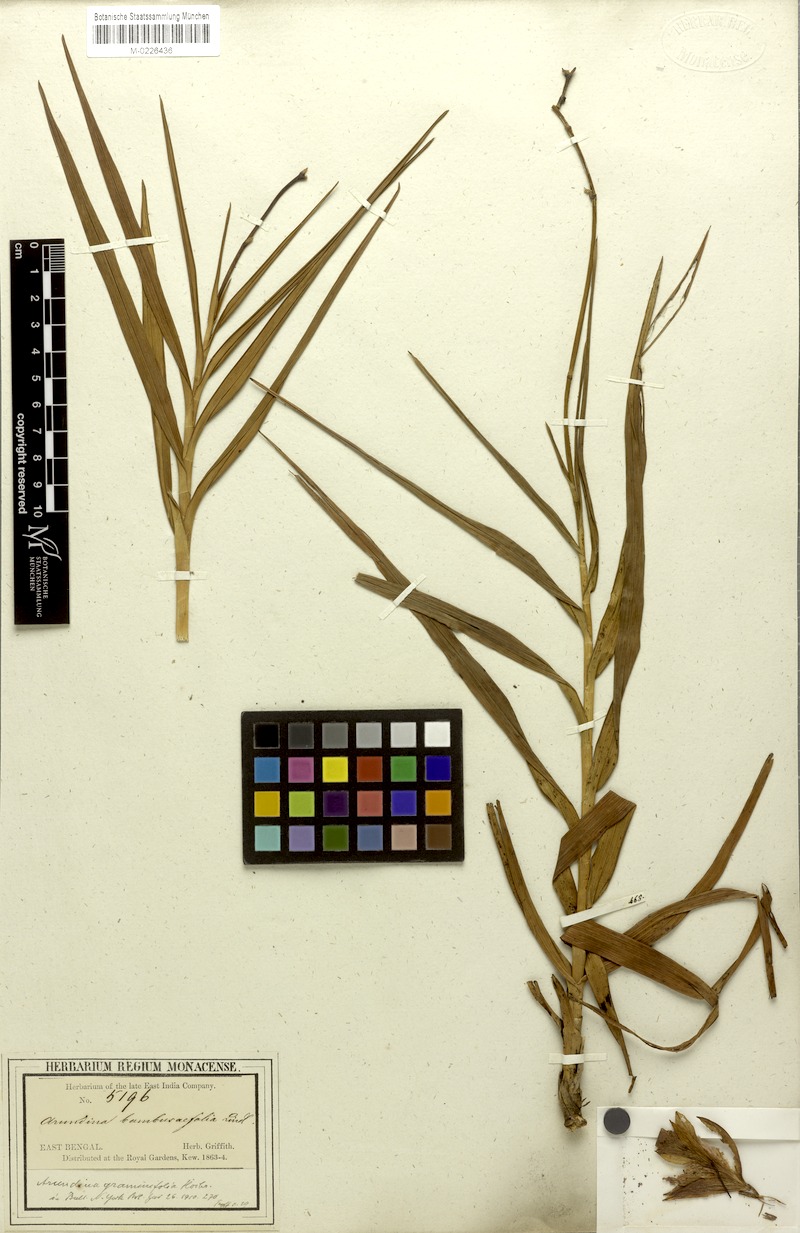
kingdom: Plantae
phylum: Tracheophyta
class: Liliopsida
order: Asparagales
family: Orchidaceae
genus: Arundina
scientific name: Arundina graminifolia
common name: Bamboo orchid
